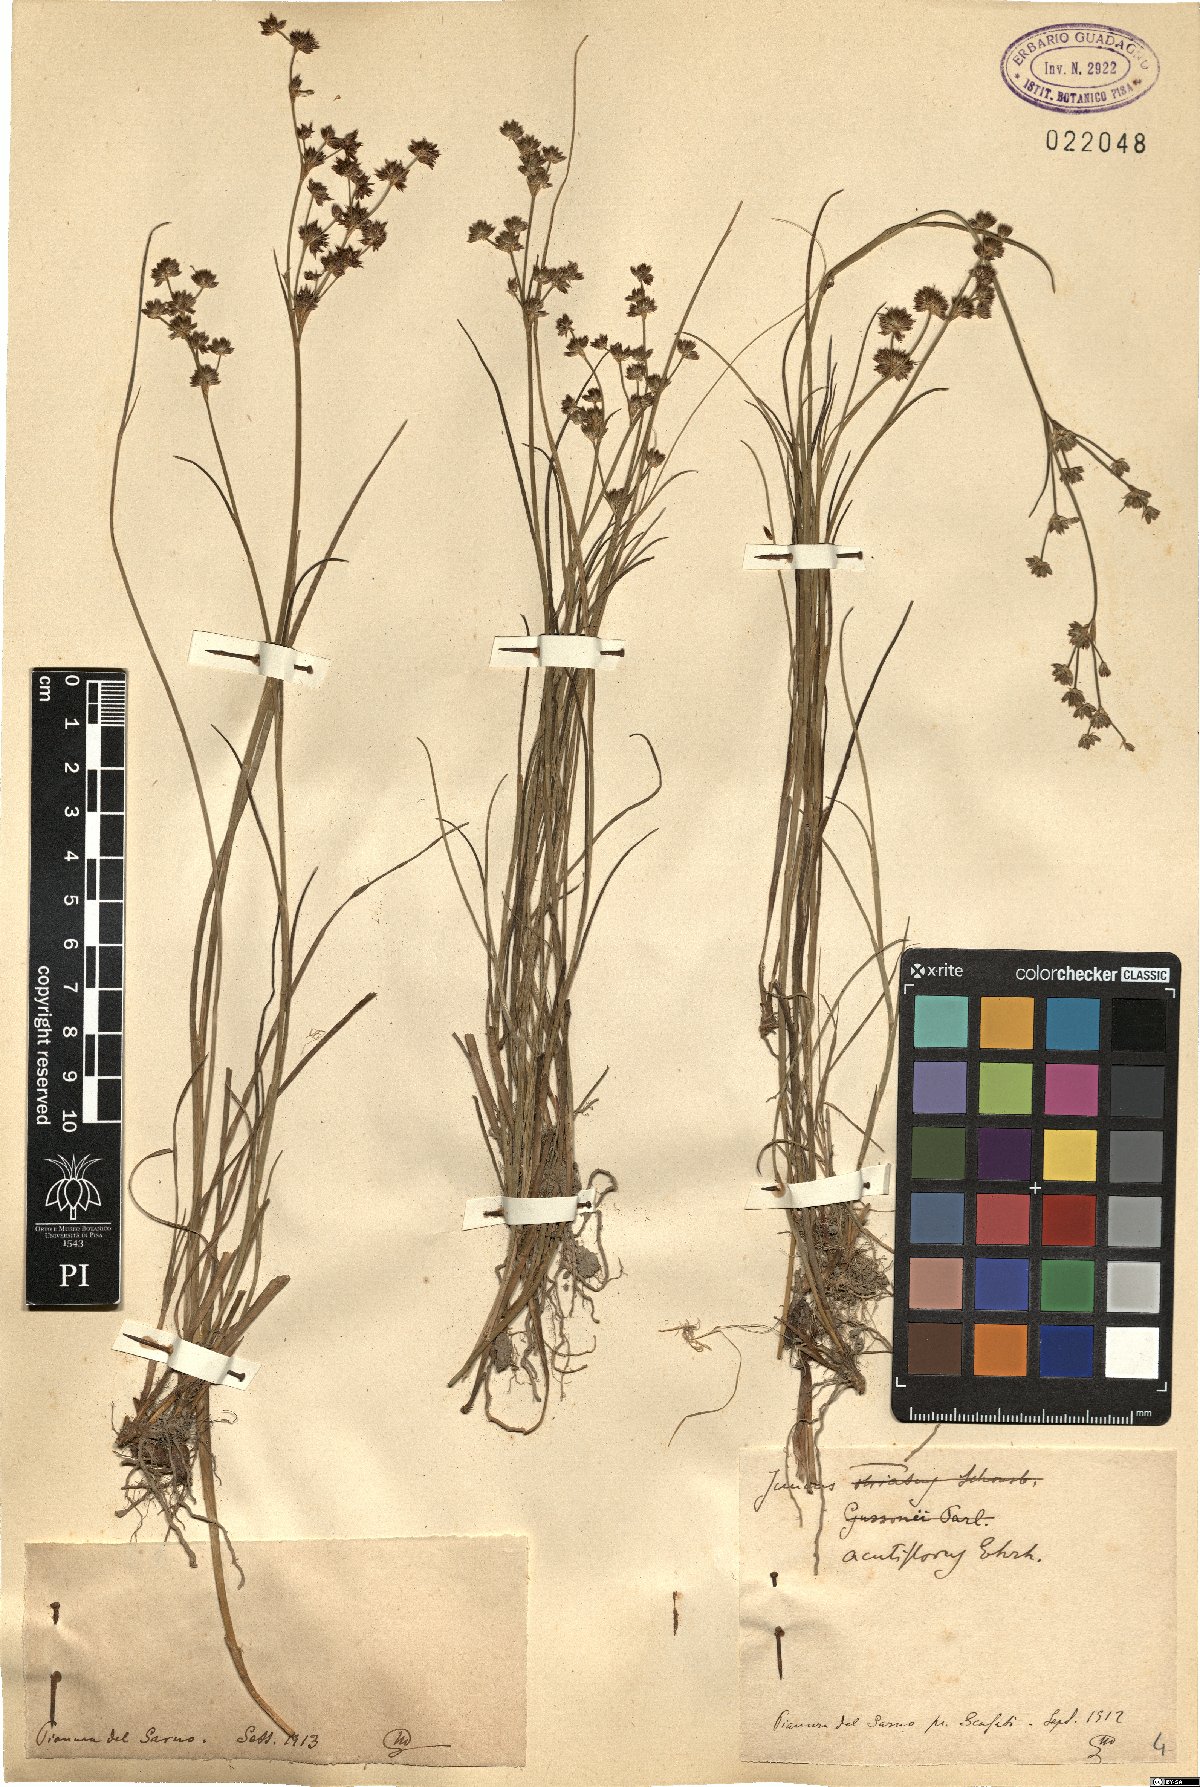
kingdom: Plantae
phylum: Tracheophyta
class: Liliopsida
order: Poales
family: Juncaceae
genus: Juncus
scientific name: Juncus acutiflorus
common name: Sharp-flowered rush
